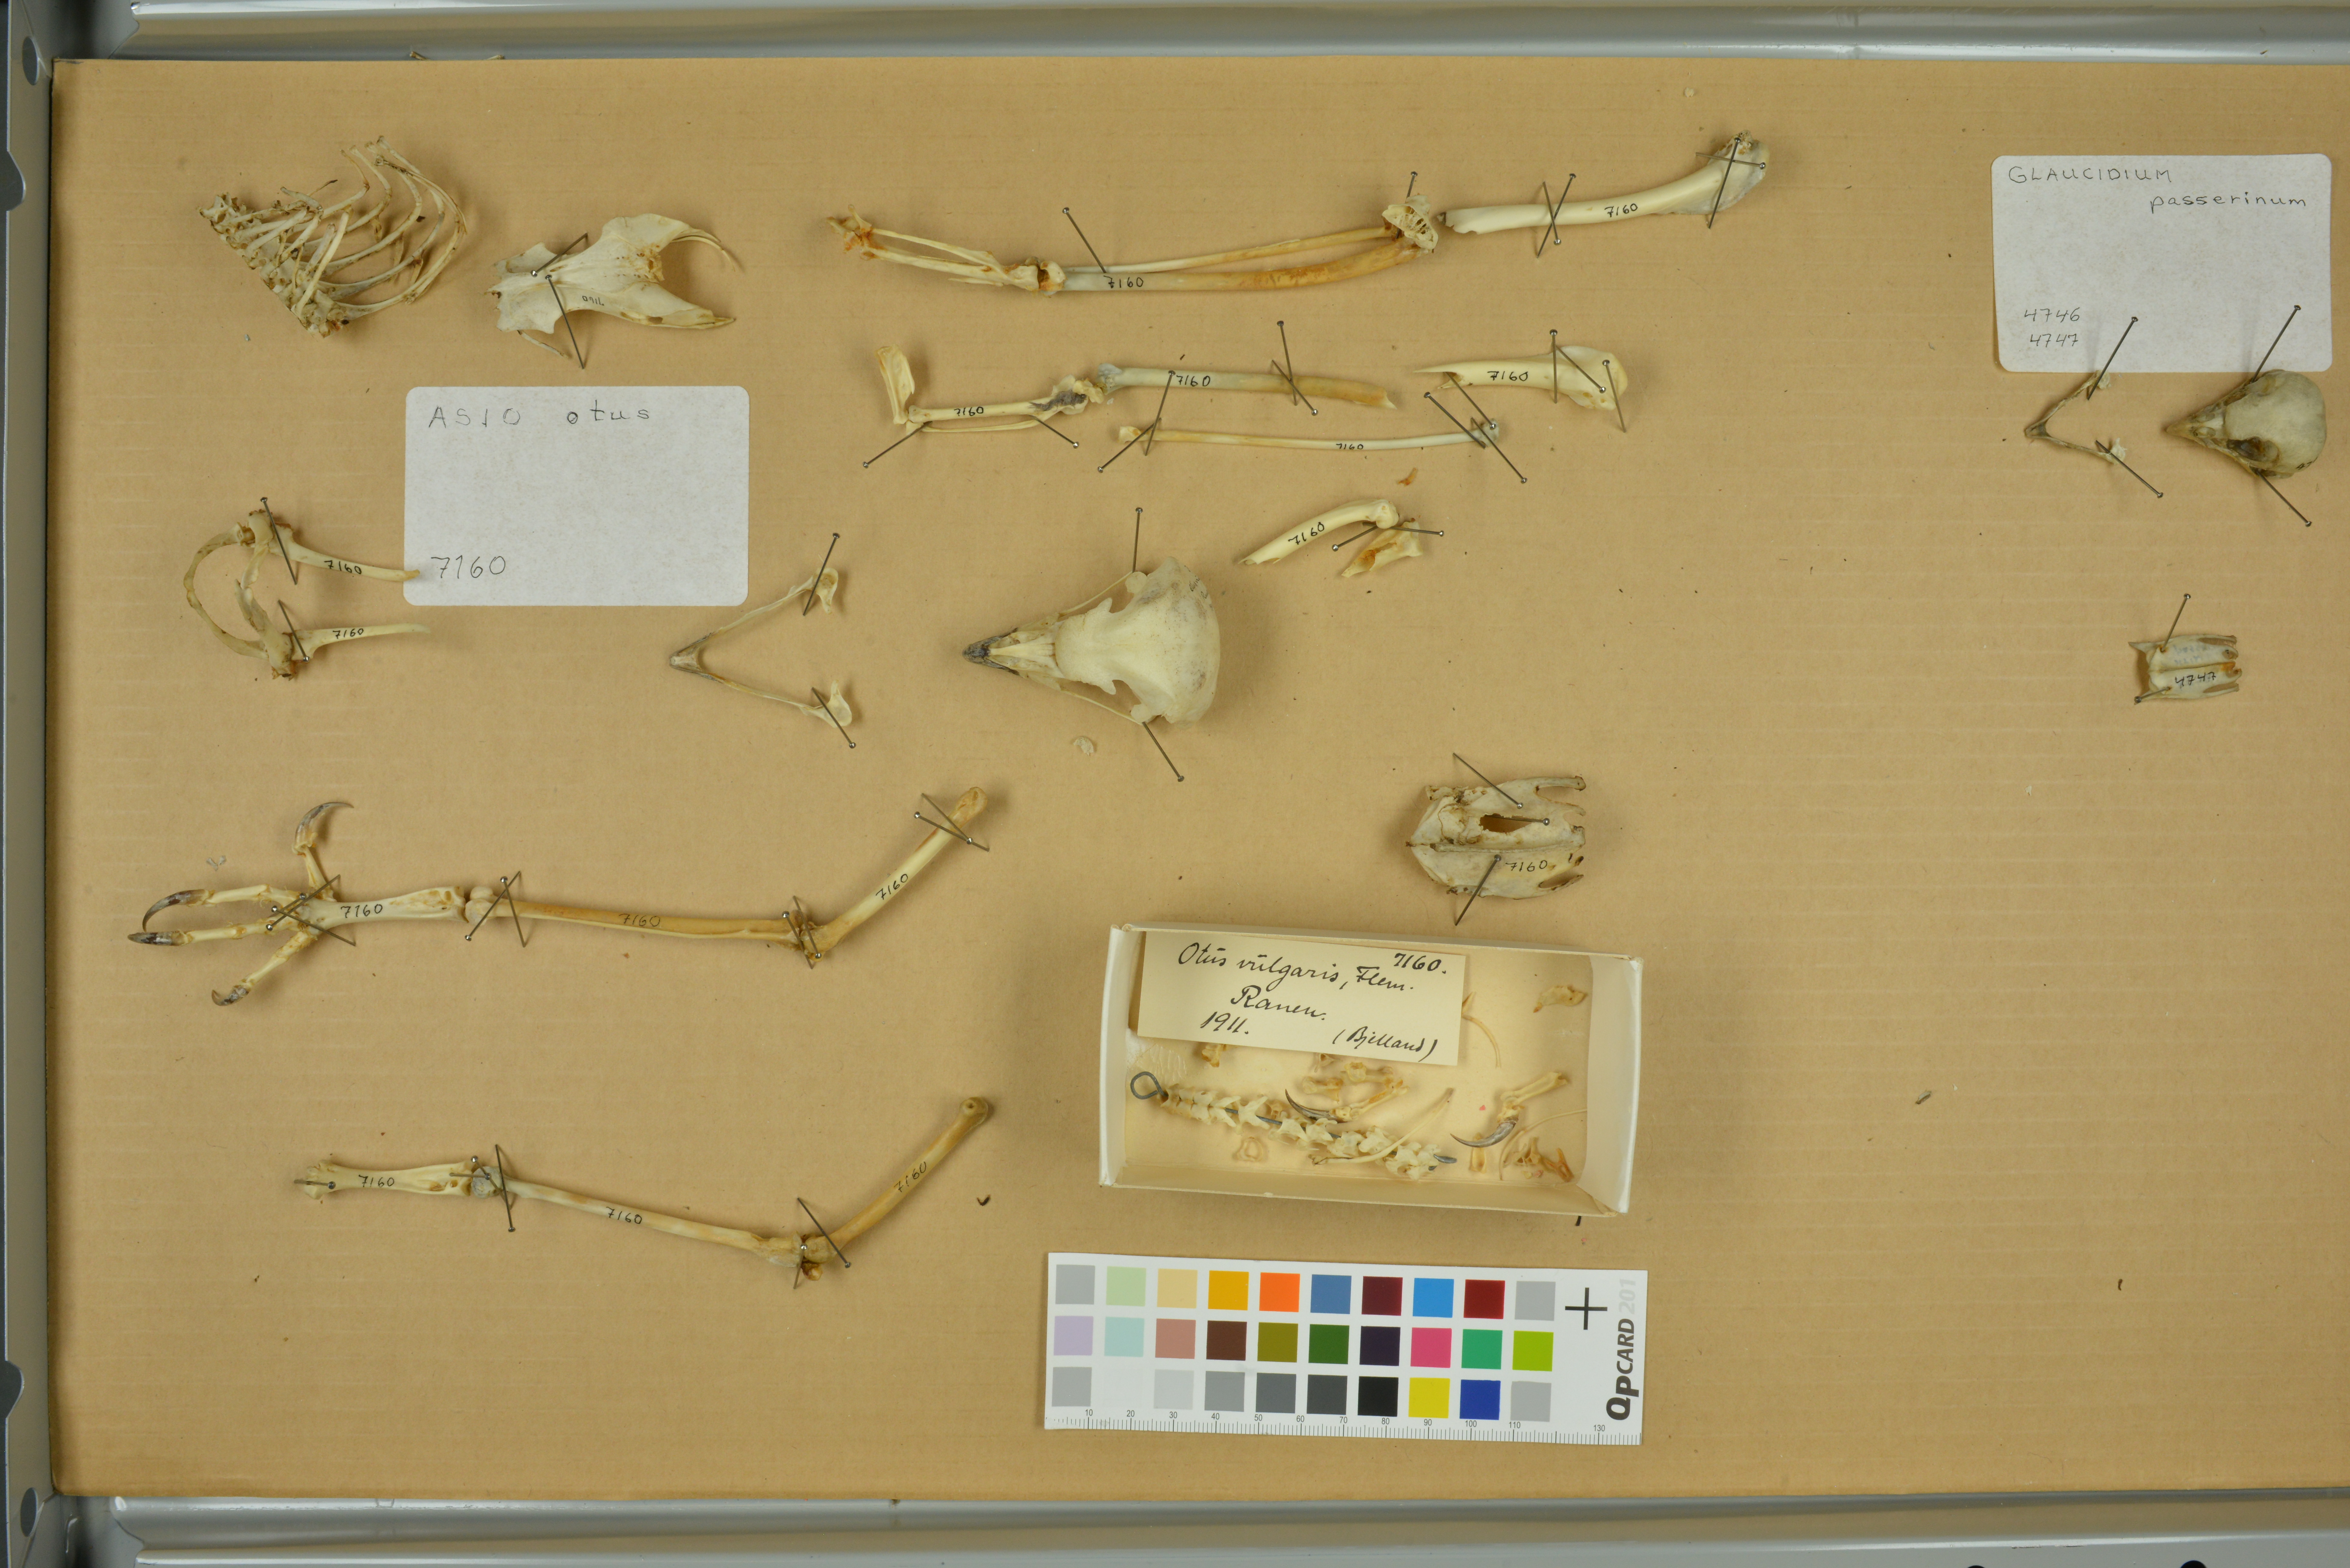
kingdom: Animalia
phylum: Chordata
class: Aves
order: Strigiformes
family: Strigidae
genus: Asio
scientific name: Asio otus
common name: Long-eared owl
